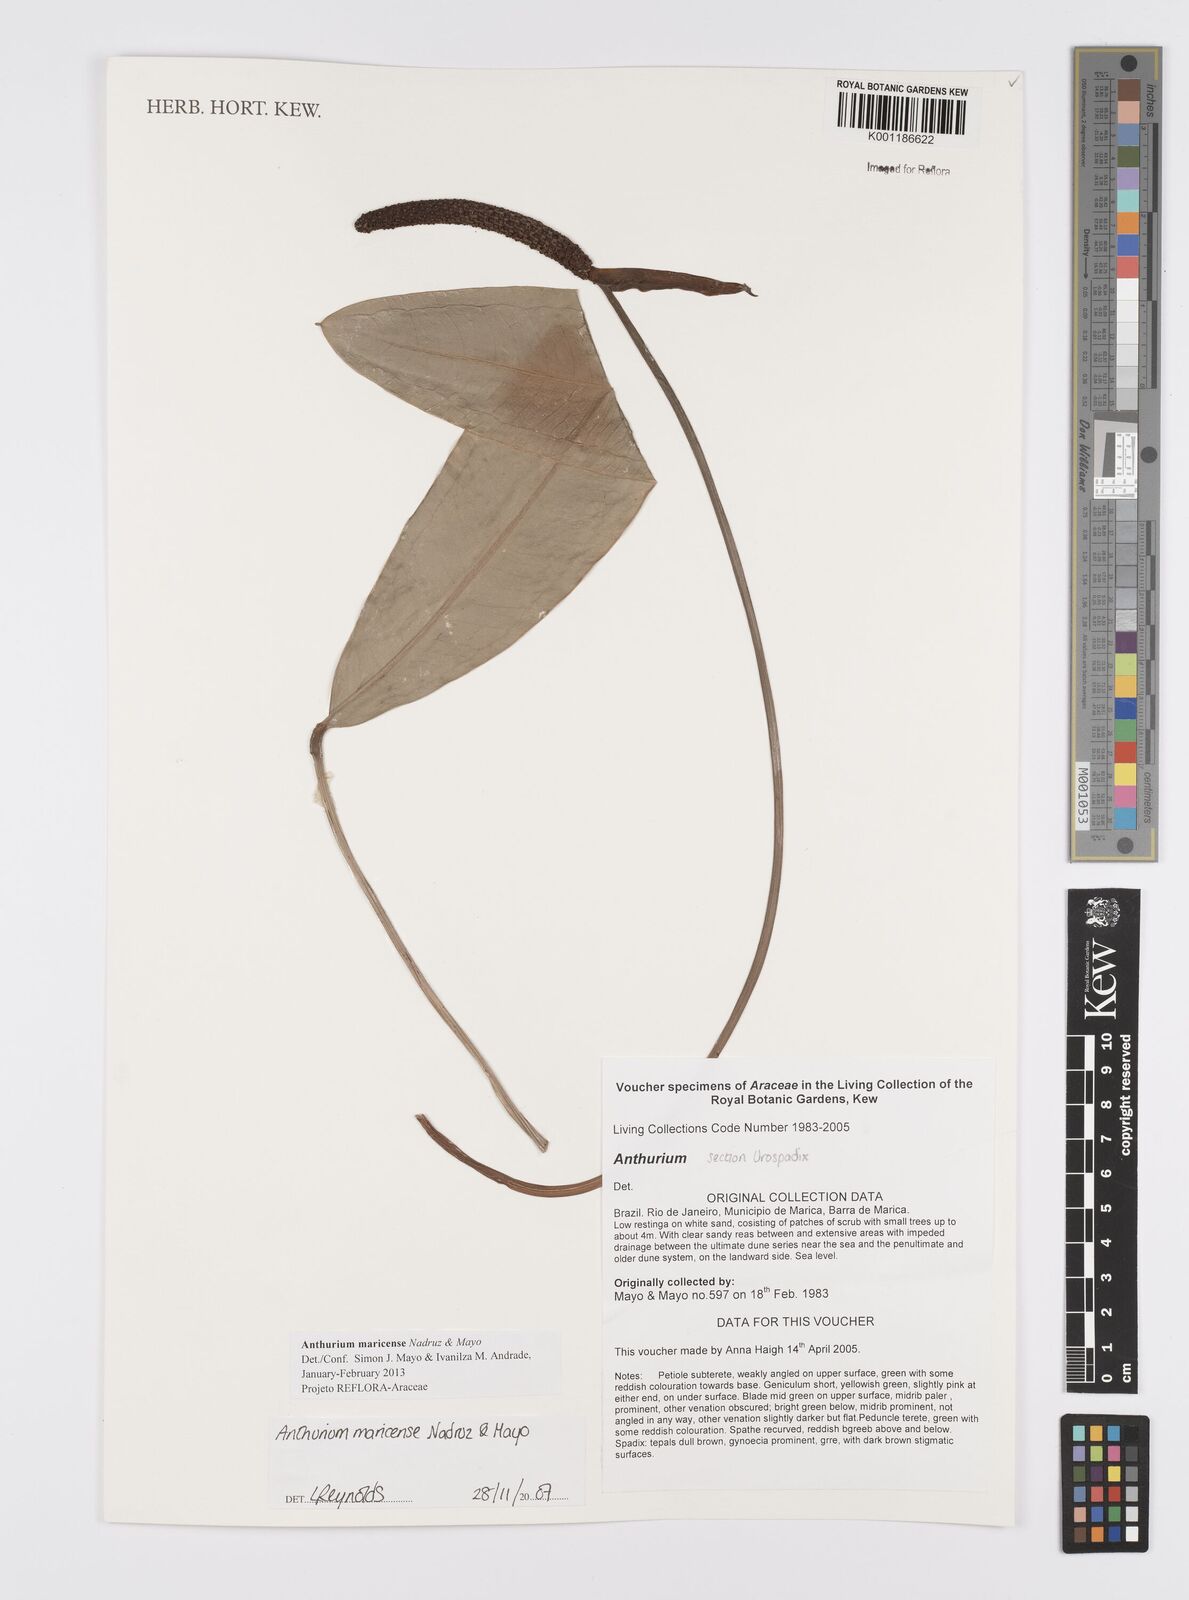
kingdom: Plantae
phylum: Tracheophyta
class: Liliopsida
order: Alismatales
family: Araceae
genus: Anthurium
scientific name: Anthurium maricense
